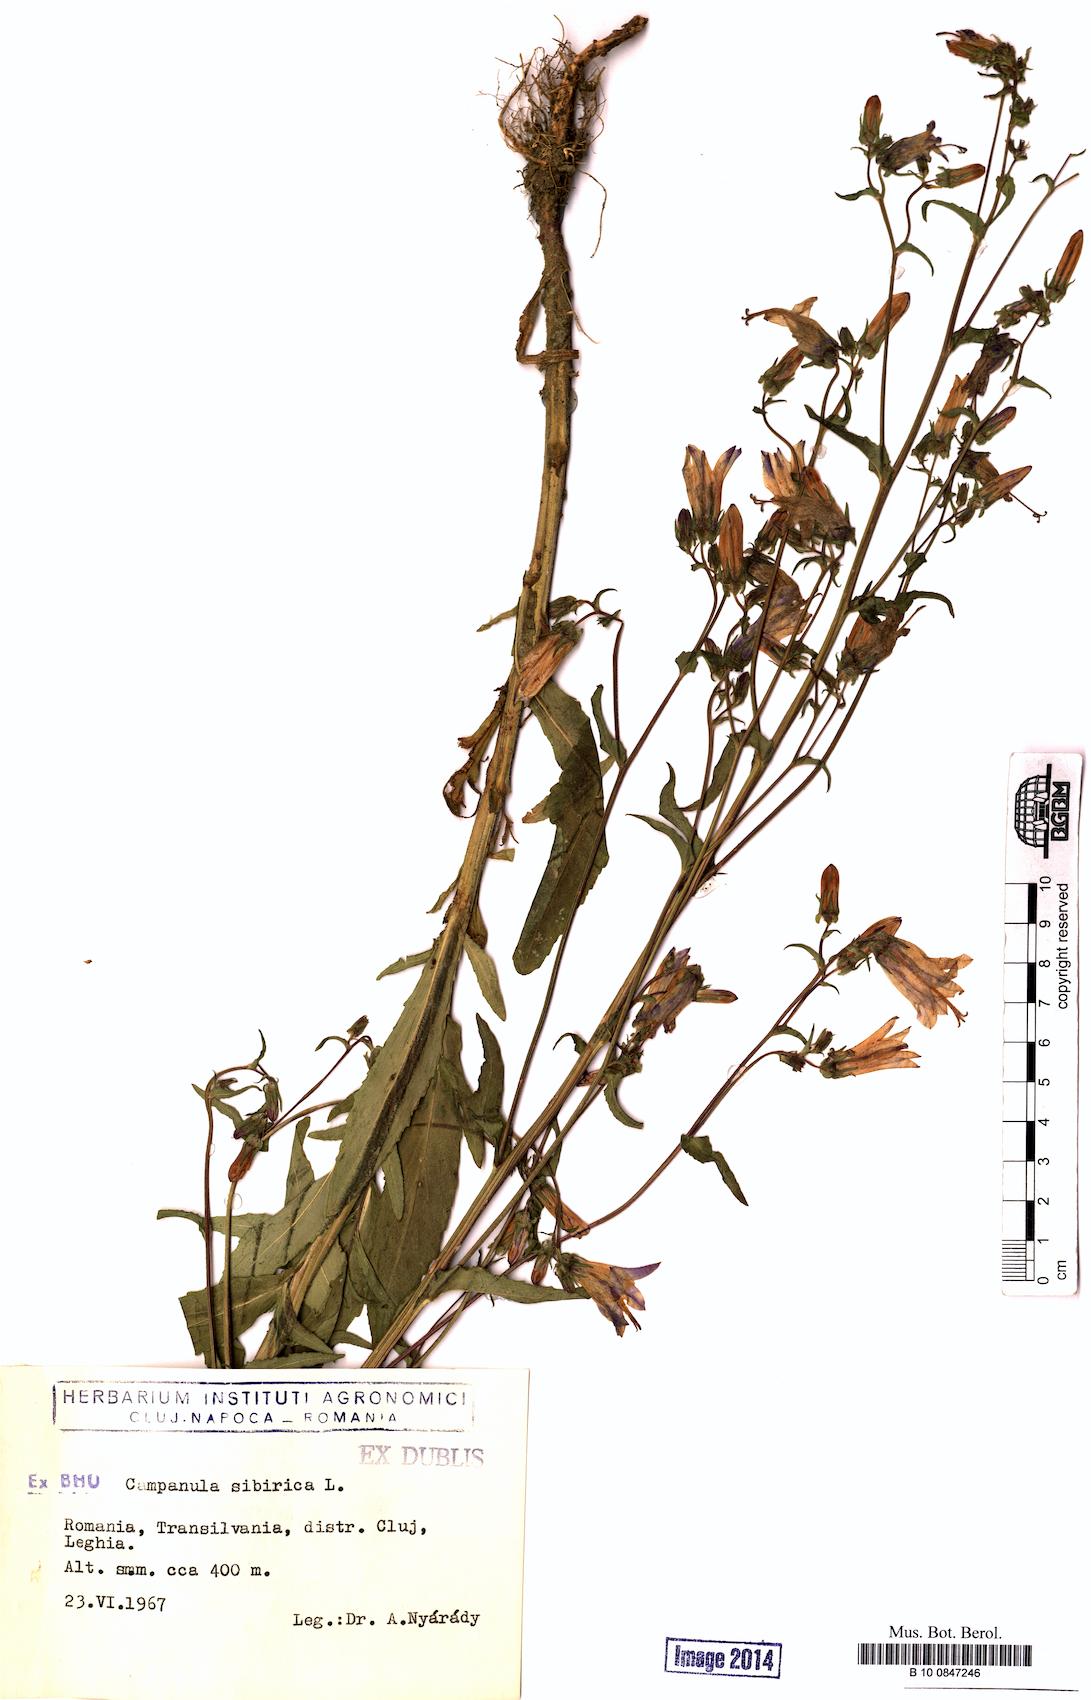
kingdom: Plantae
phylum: Tracheophyta
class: Magnoliopsida
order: Asterales
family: Campanulaceae
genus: Campanula
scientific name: Campanula sibirica
